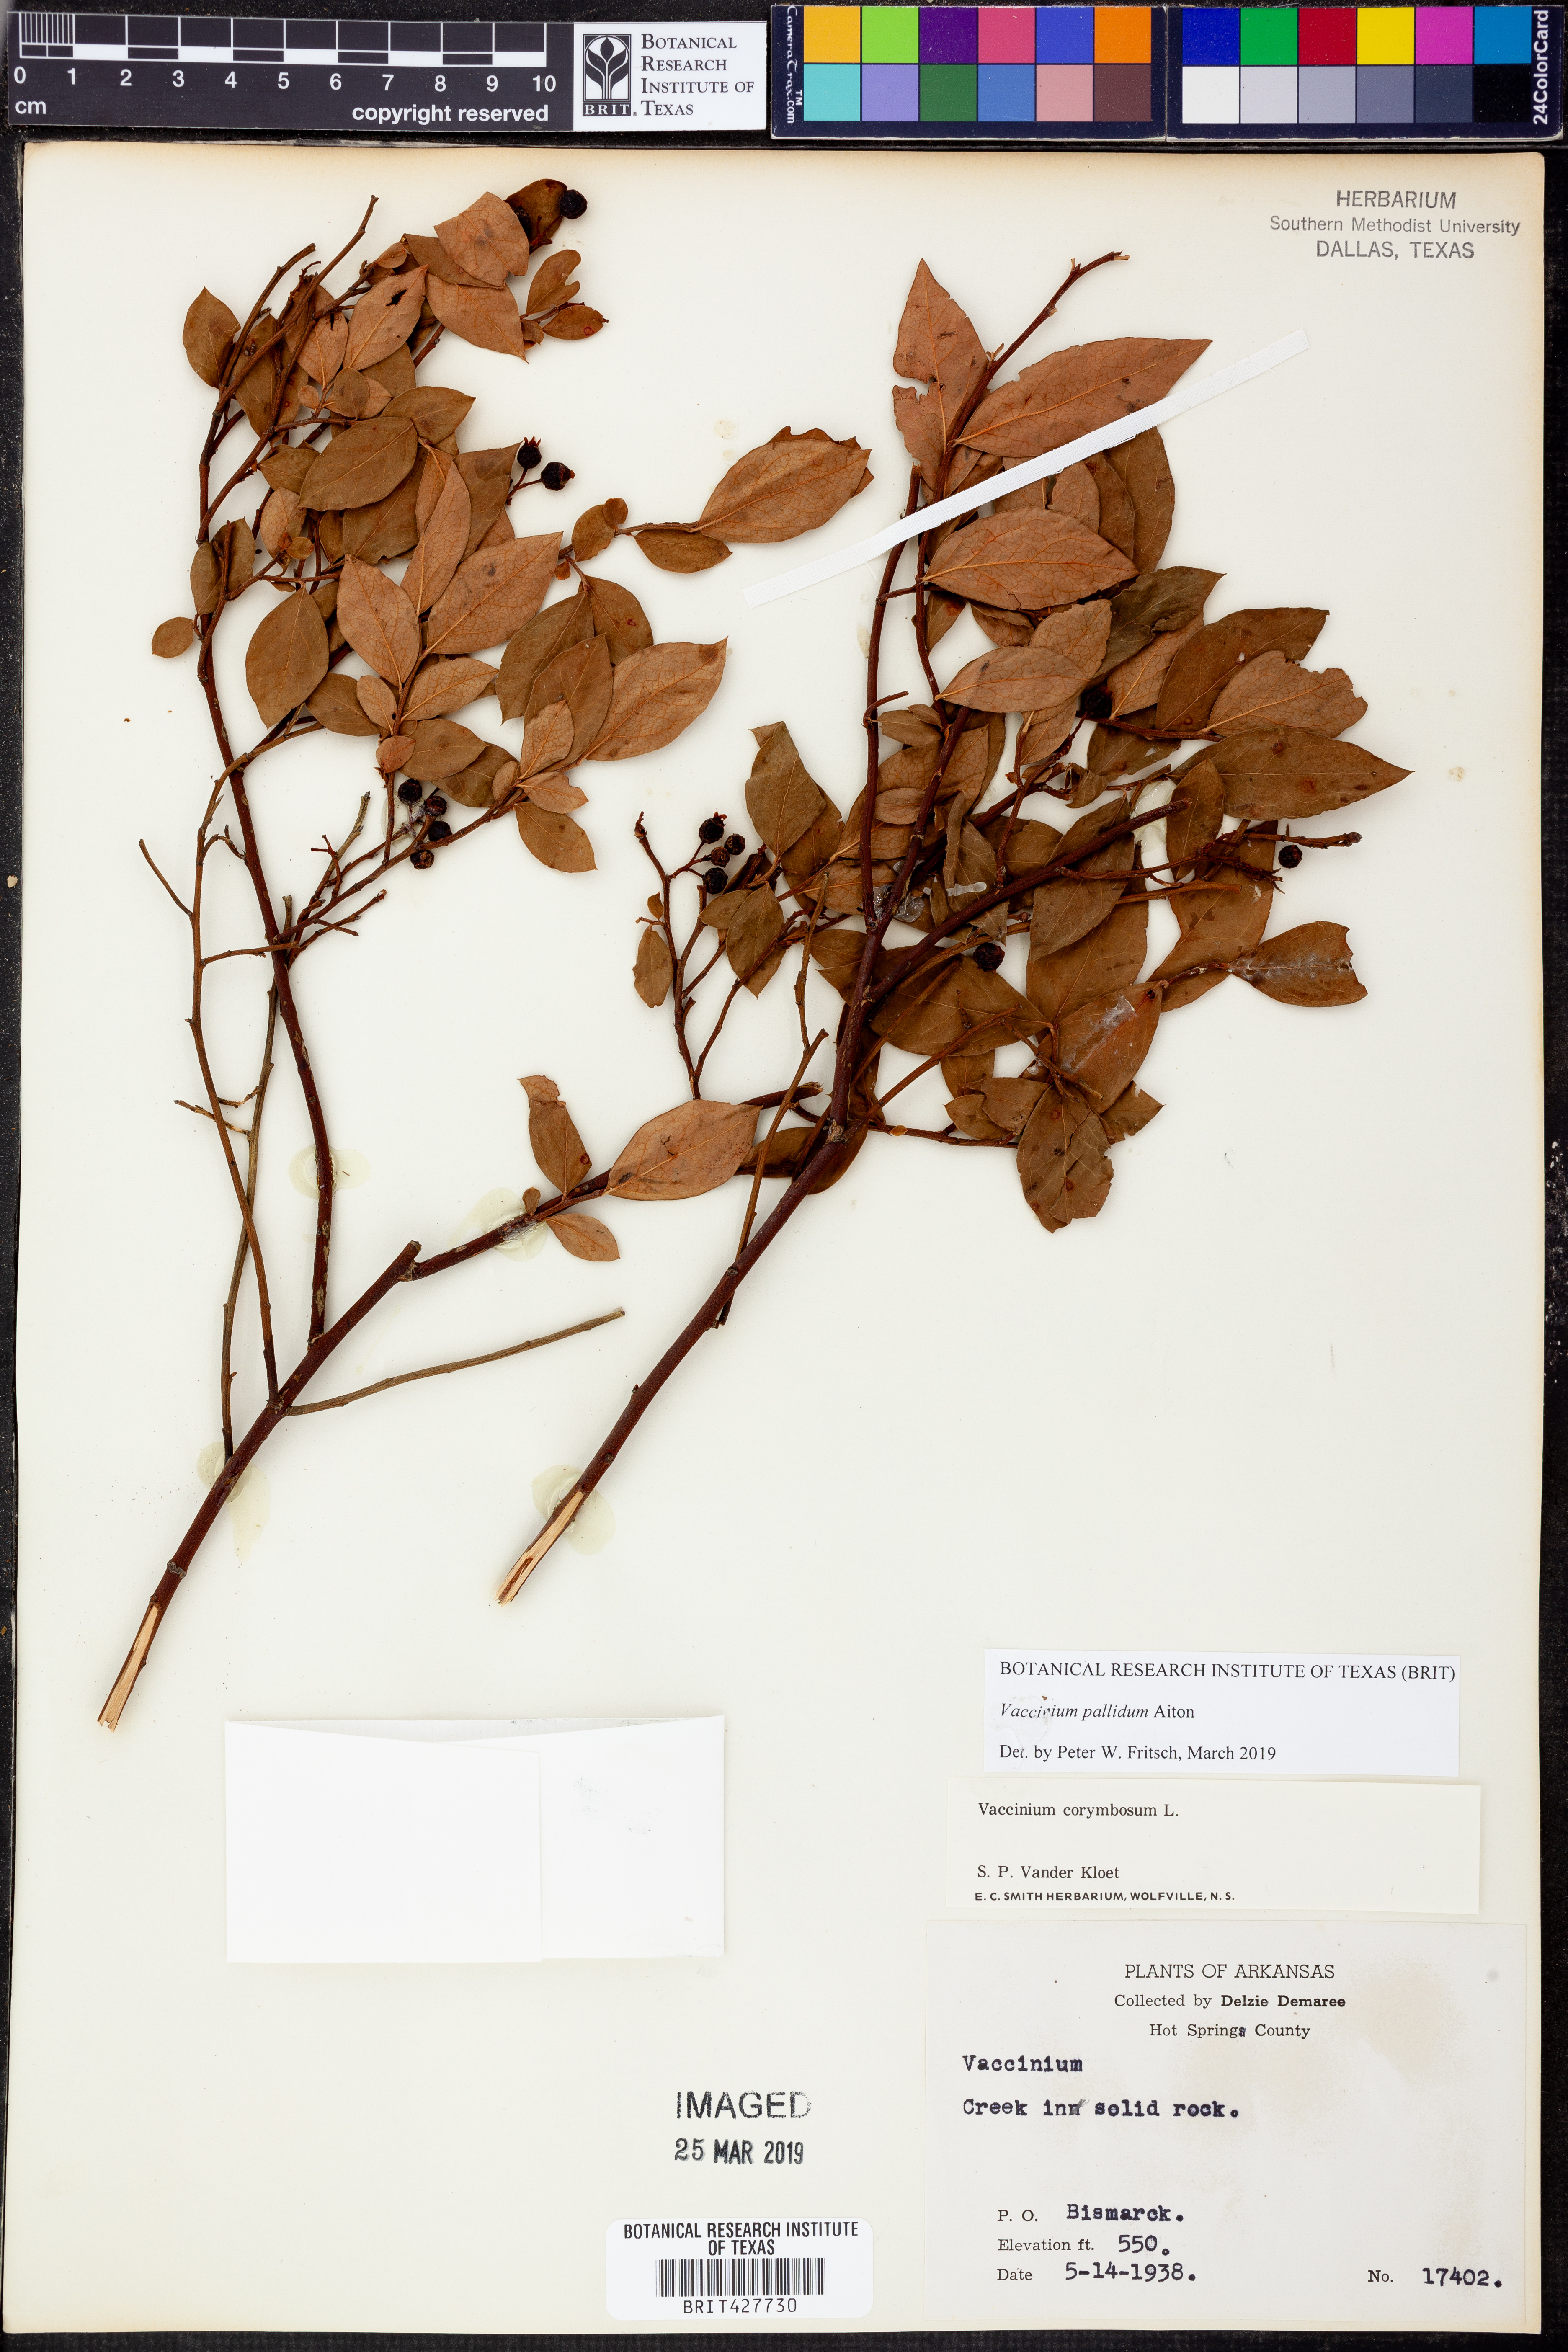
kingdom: Plantae
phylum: Tracheophyta
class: Magnoliopsida
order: Ericales
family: Ericaceae
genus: Vaccinium
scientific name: Vaccinium pallidum
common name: Blue ridge blueberry
